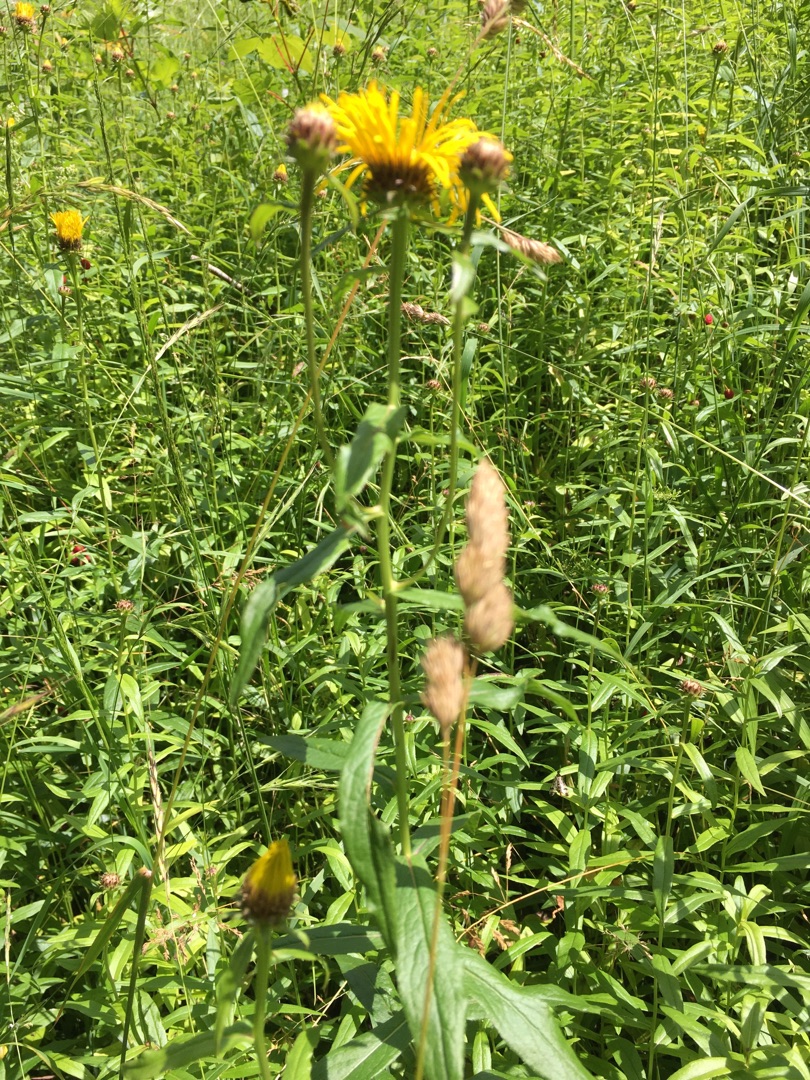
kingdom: Plantae
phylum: Tracheophyta
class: Magnoliopsida
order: Asterales
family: Asteraceae
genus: Pentanema
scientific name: Pentanema salicinum
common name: Pile-alant
